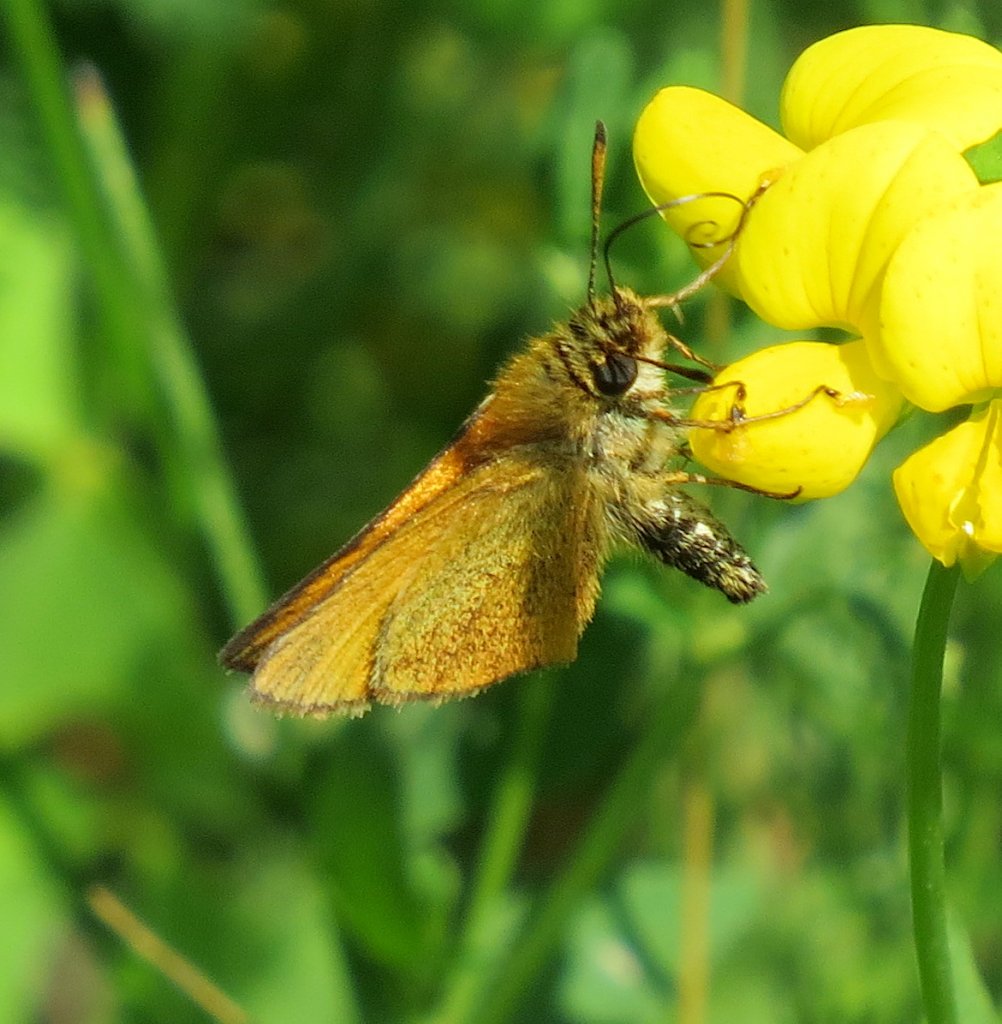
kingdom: Animalia
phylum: Arthropoda
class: Insecta
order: Lepidoptera
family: Hesperiidae
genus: Polites
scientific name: Polites themistocles
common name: Tawny-edged Skipper
